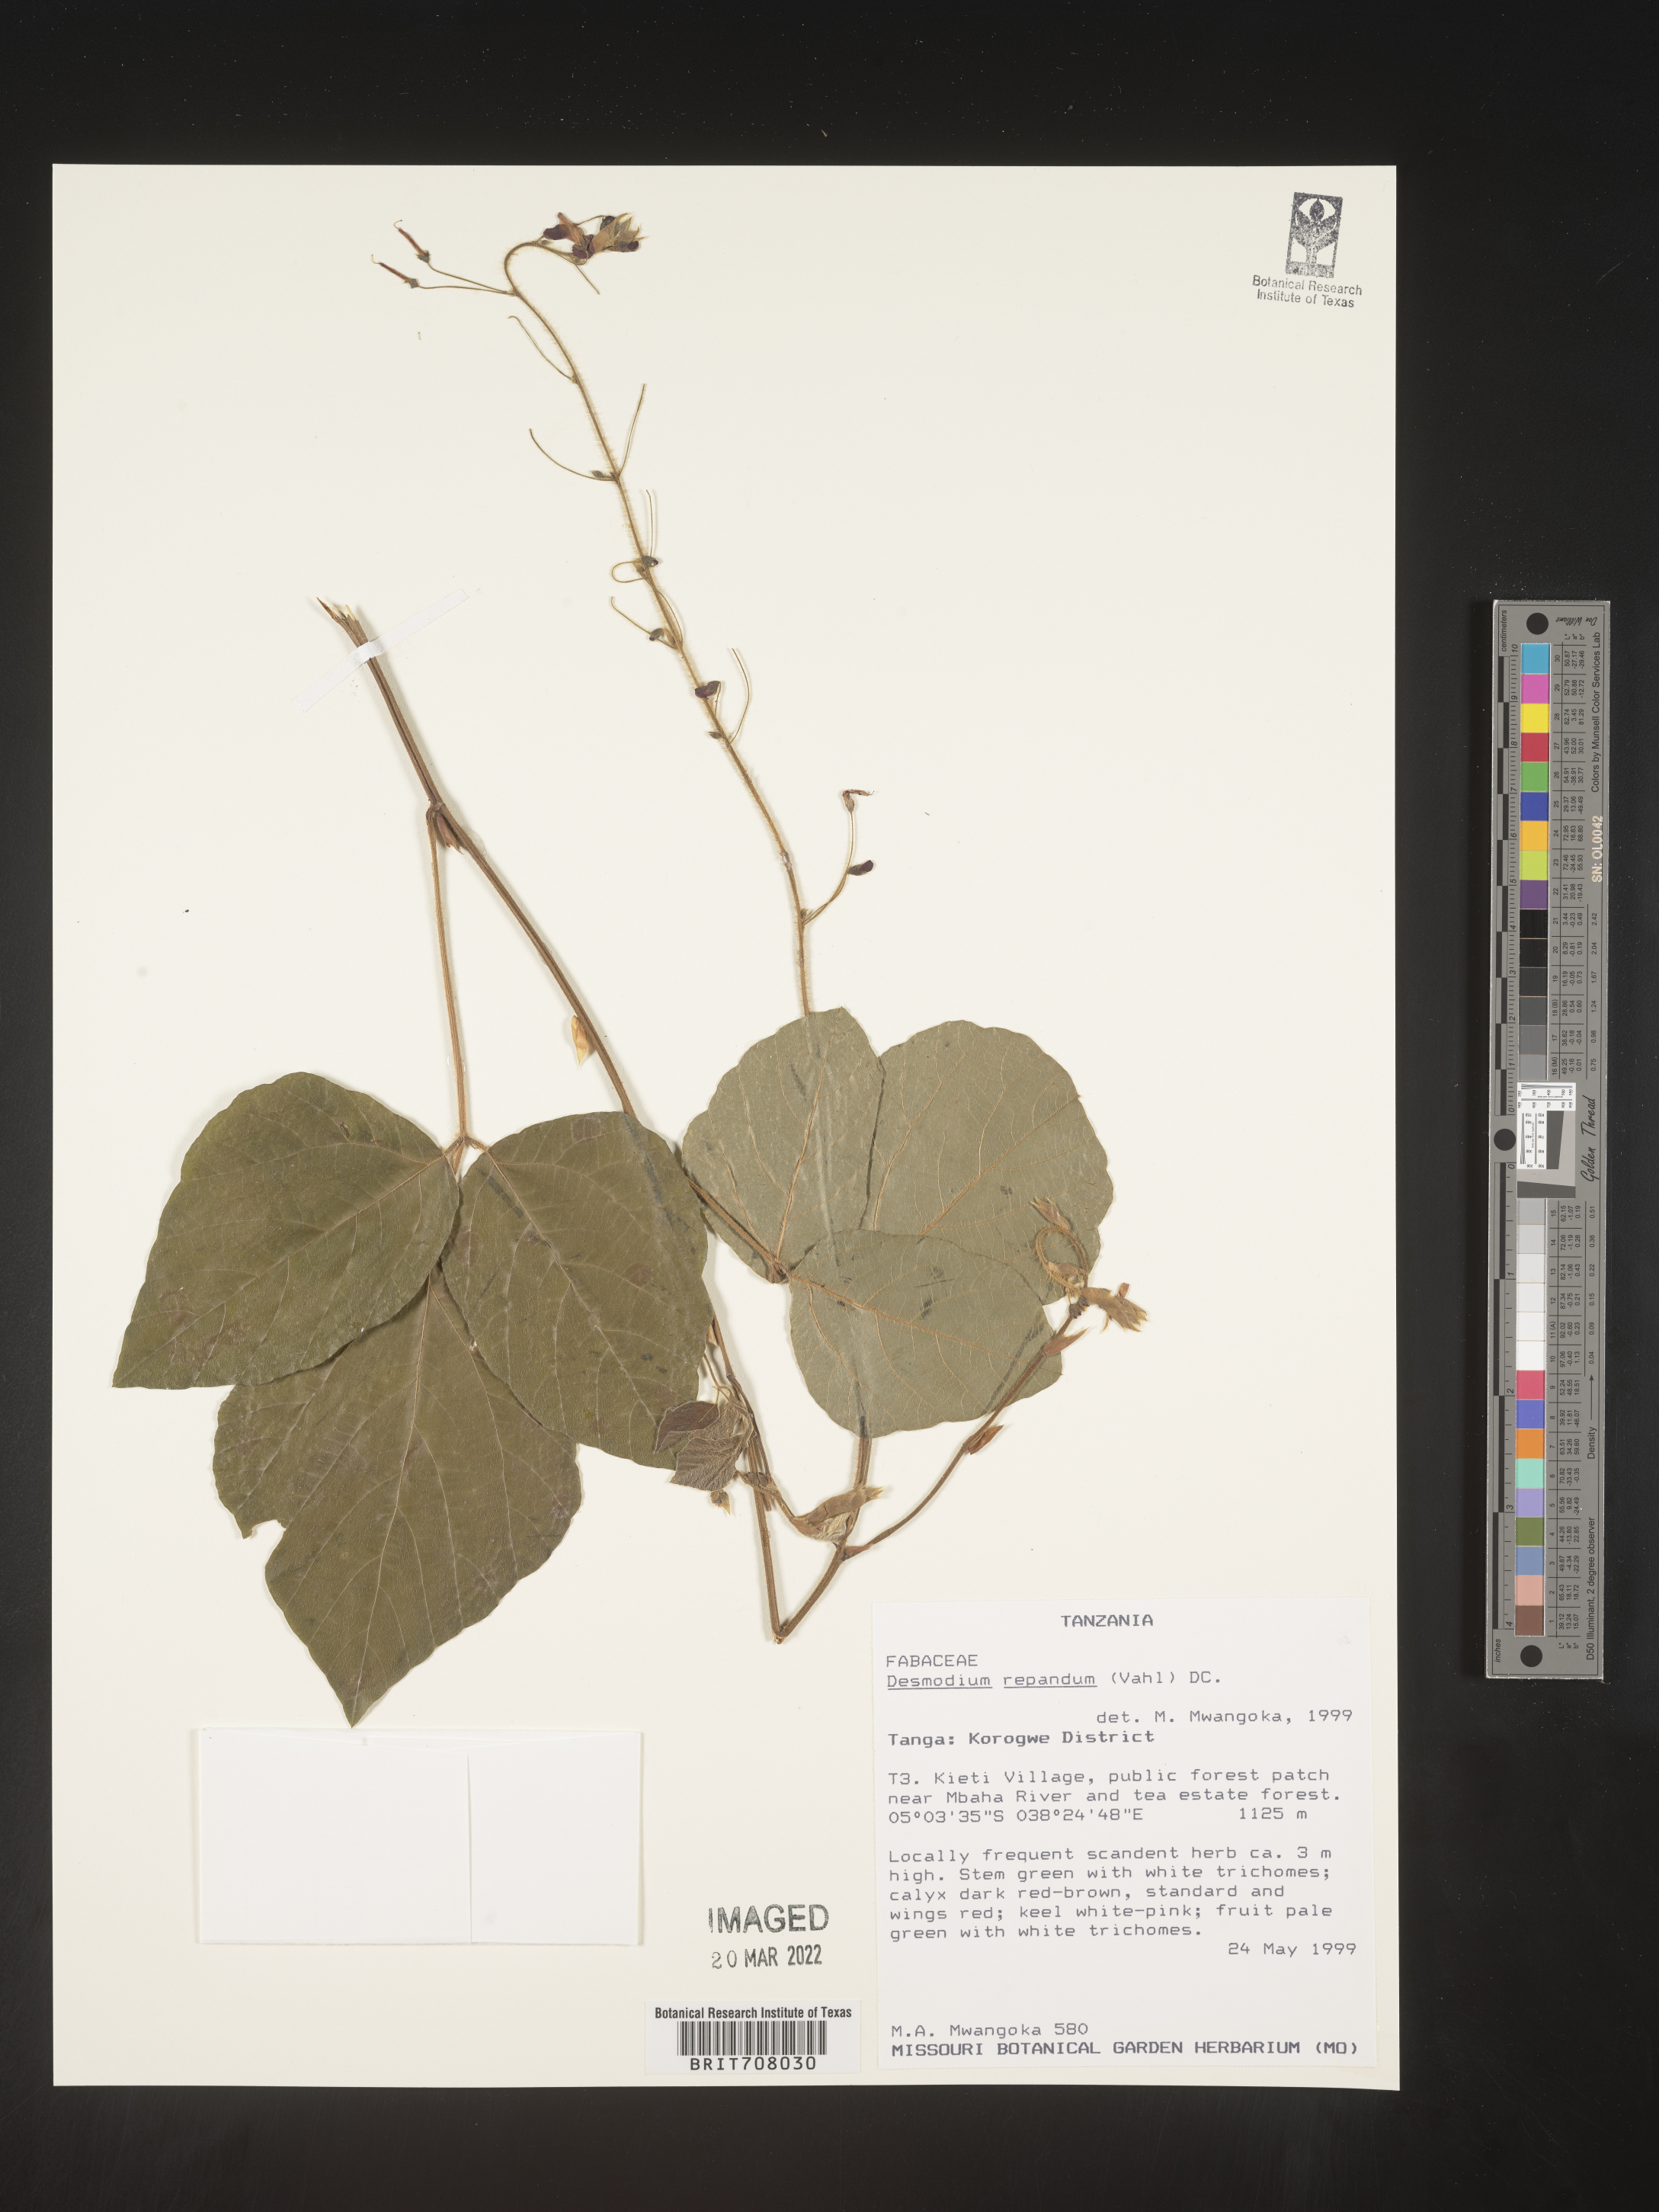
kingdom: Plantae
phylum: Tracheophyta
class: Magnoliopsida
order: Fabales
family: Fabaceae
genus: Desmodium
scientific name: Desmodium
